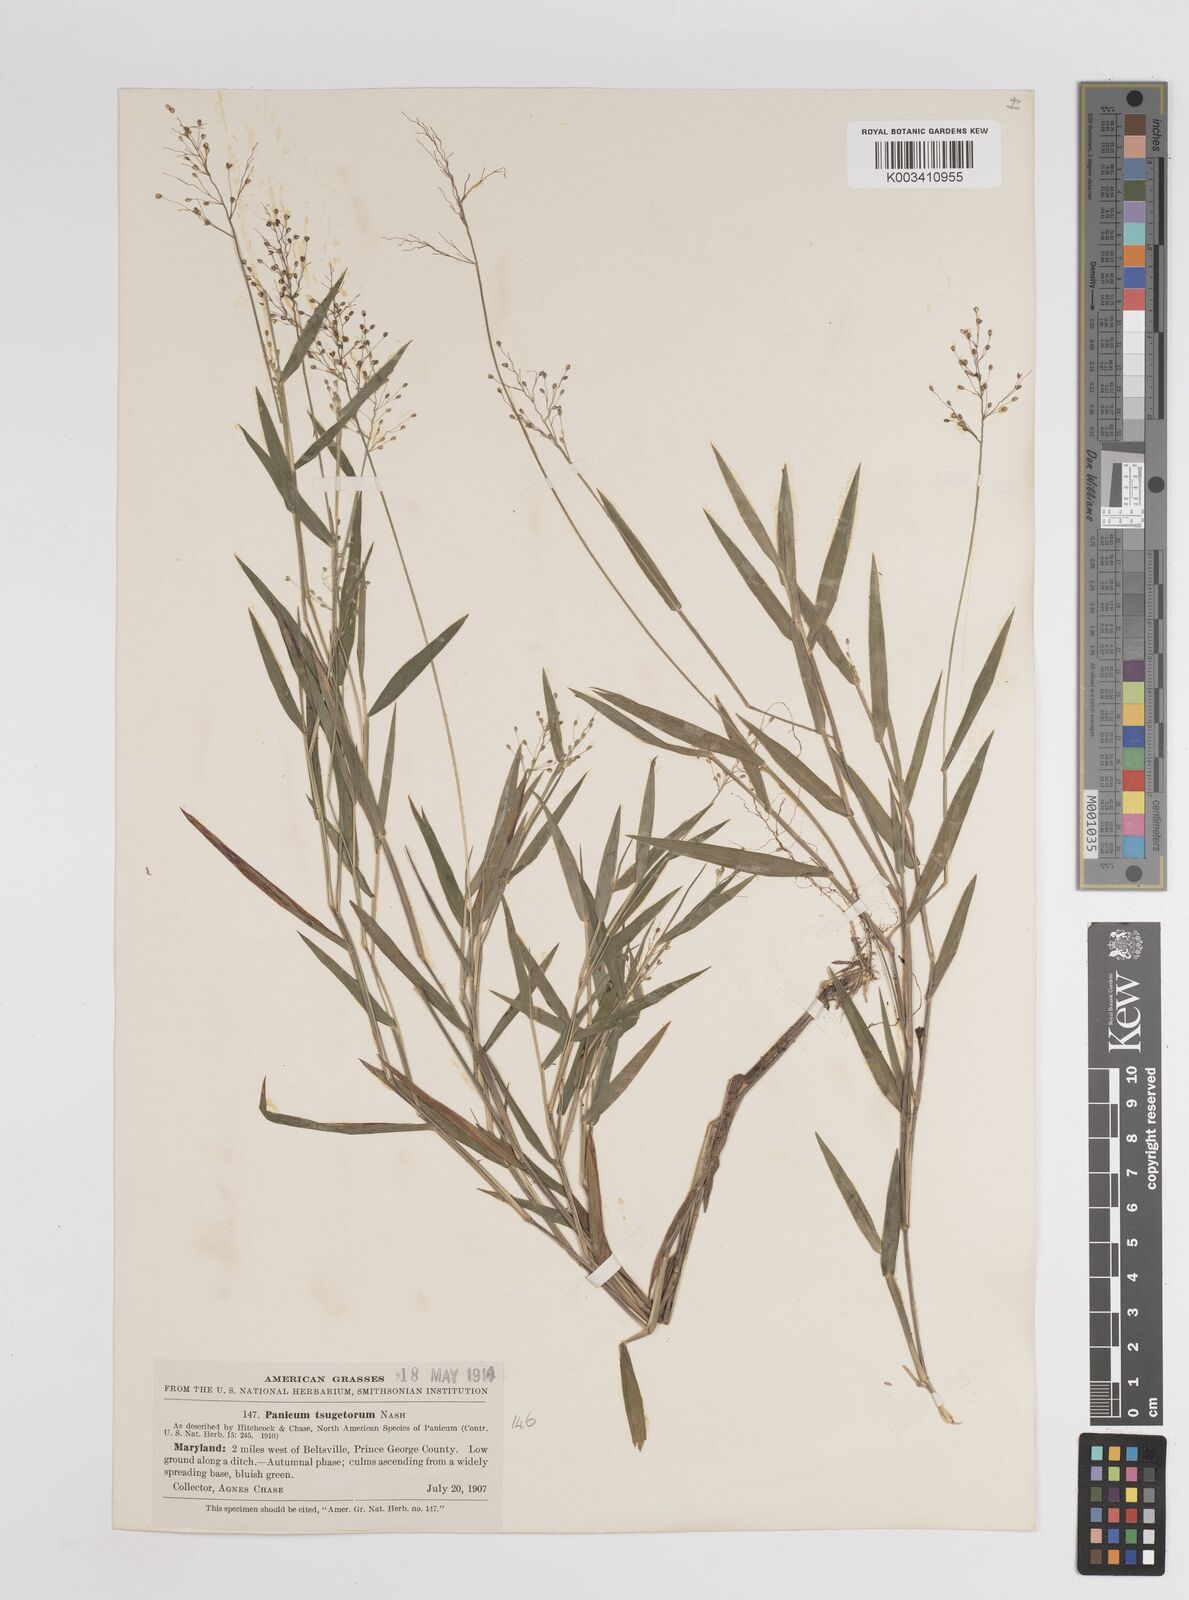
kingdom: Plantae
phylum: Tracheophyta
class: Liliopsida
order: Poales
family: Poaceae
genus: Dichanthelium
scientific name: Dichanthelium columbianum
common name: Hemlock panic grass
